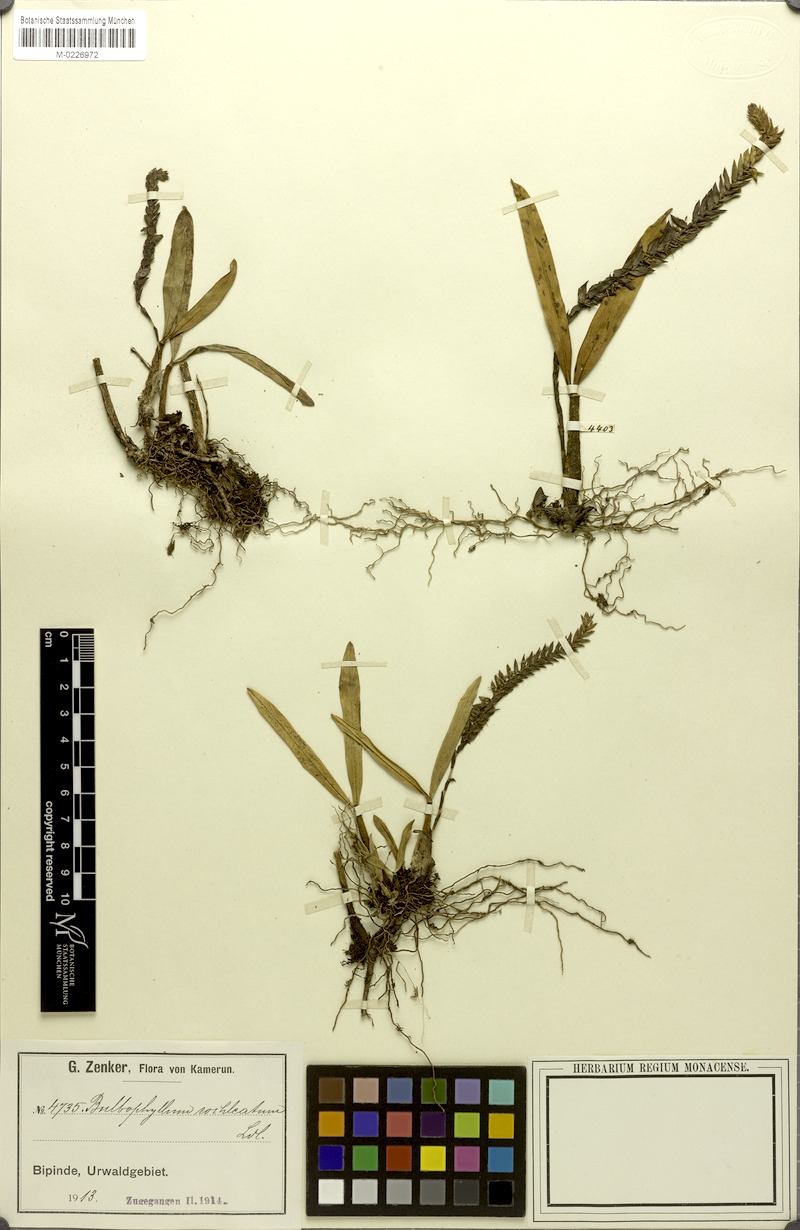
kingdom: Plantae
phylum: Tracheophyta
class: Liliopsida
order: Asparagales
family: Orchidaceae
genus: Bulbophyllum
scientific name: Bulbophyllum cochleatum
